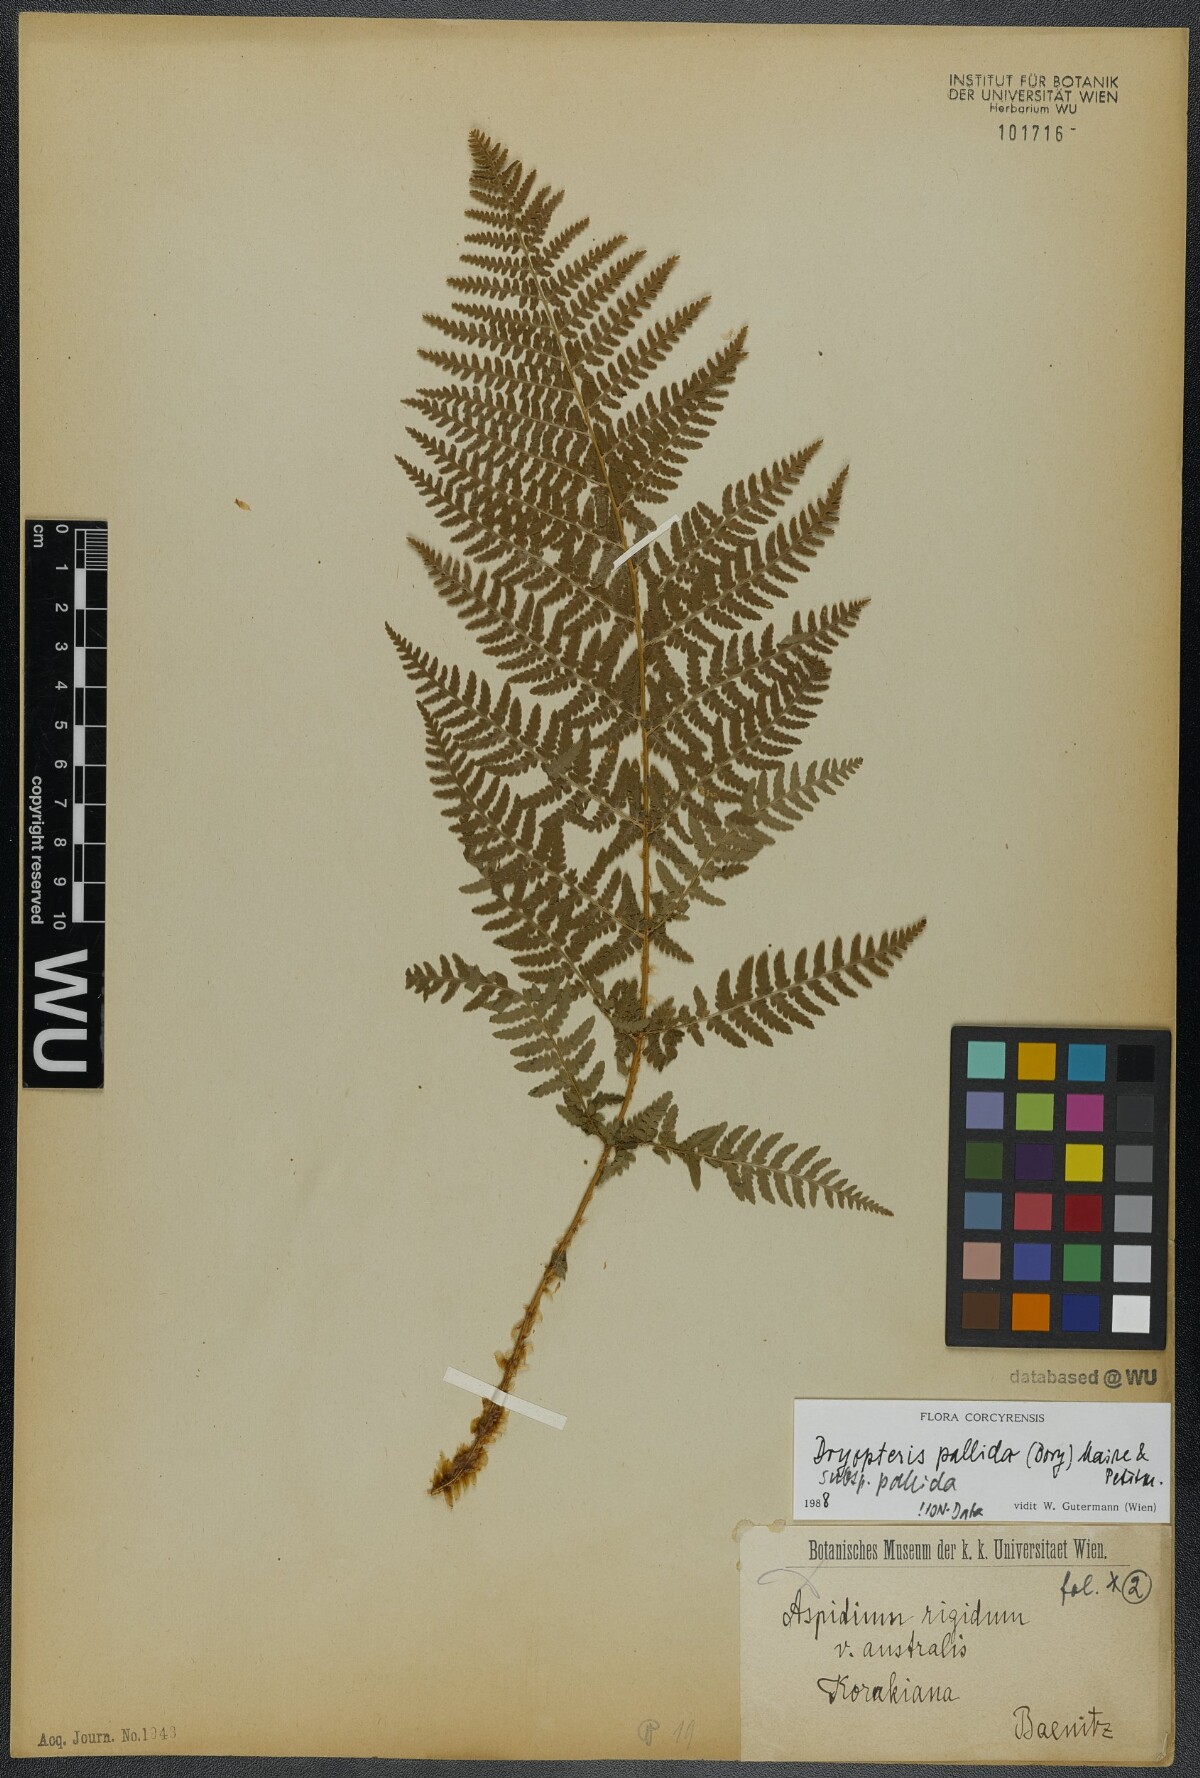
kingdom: Plantae
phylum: Tracheophyta
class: Polypodiopsida
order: Polypodiales
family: Dryopteridaceae
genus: Dryopteris
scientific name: Dryopteris pallida
